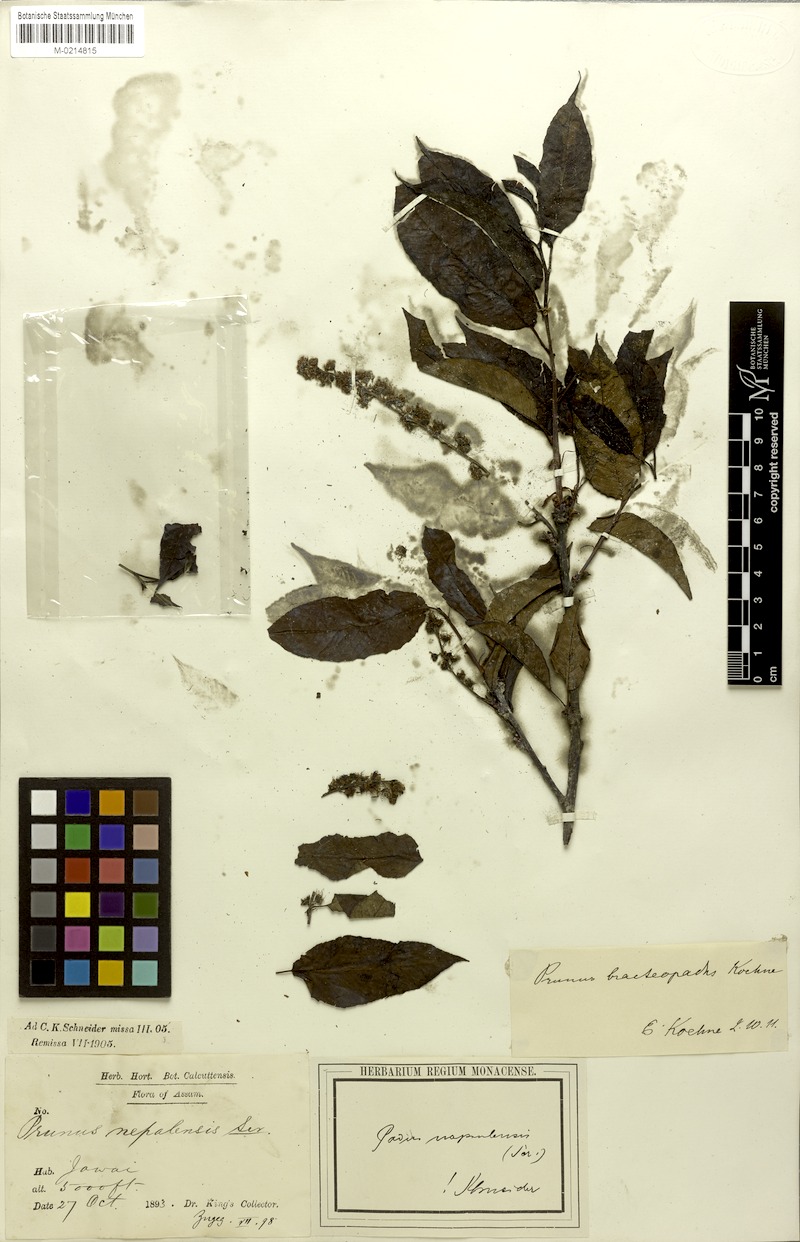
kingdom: Plantae
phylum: Tracheophyta
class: Magnoliopsida
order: Rosales
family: Rosaceae
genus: Prunus
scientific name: Prunus napaulensis
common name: Khasia cherry
